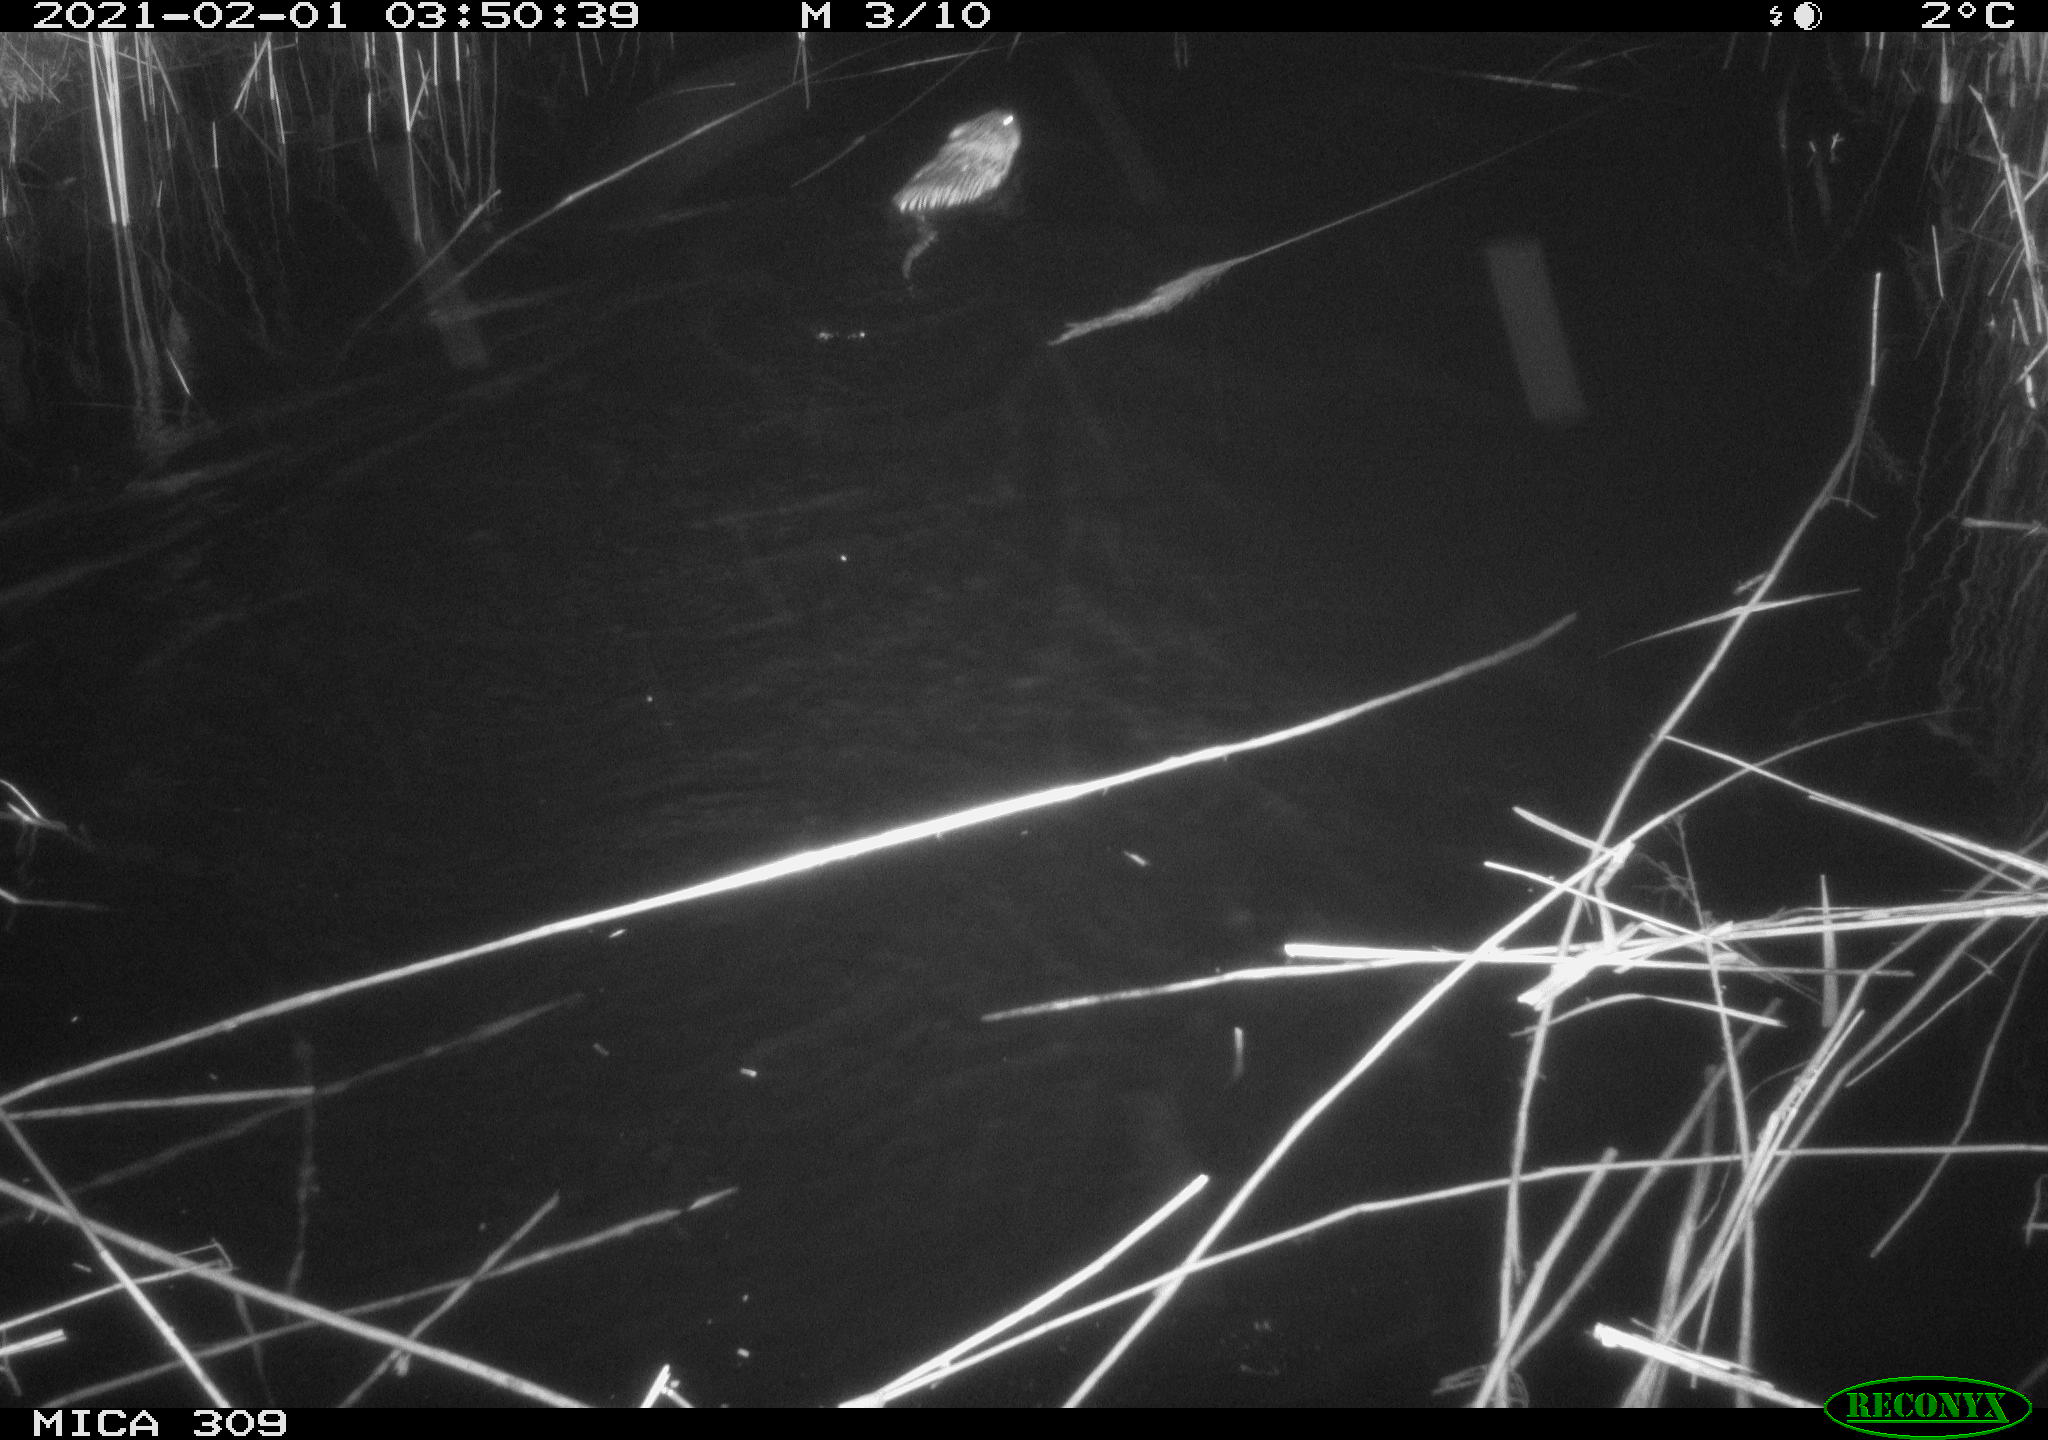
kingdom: Animalia
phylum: Chordata
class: Mammalia
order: Rodentia
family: Cricetidae
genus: Ondatra
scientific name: Ondatra zibethicus
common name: Muskrat
